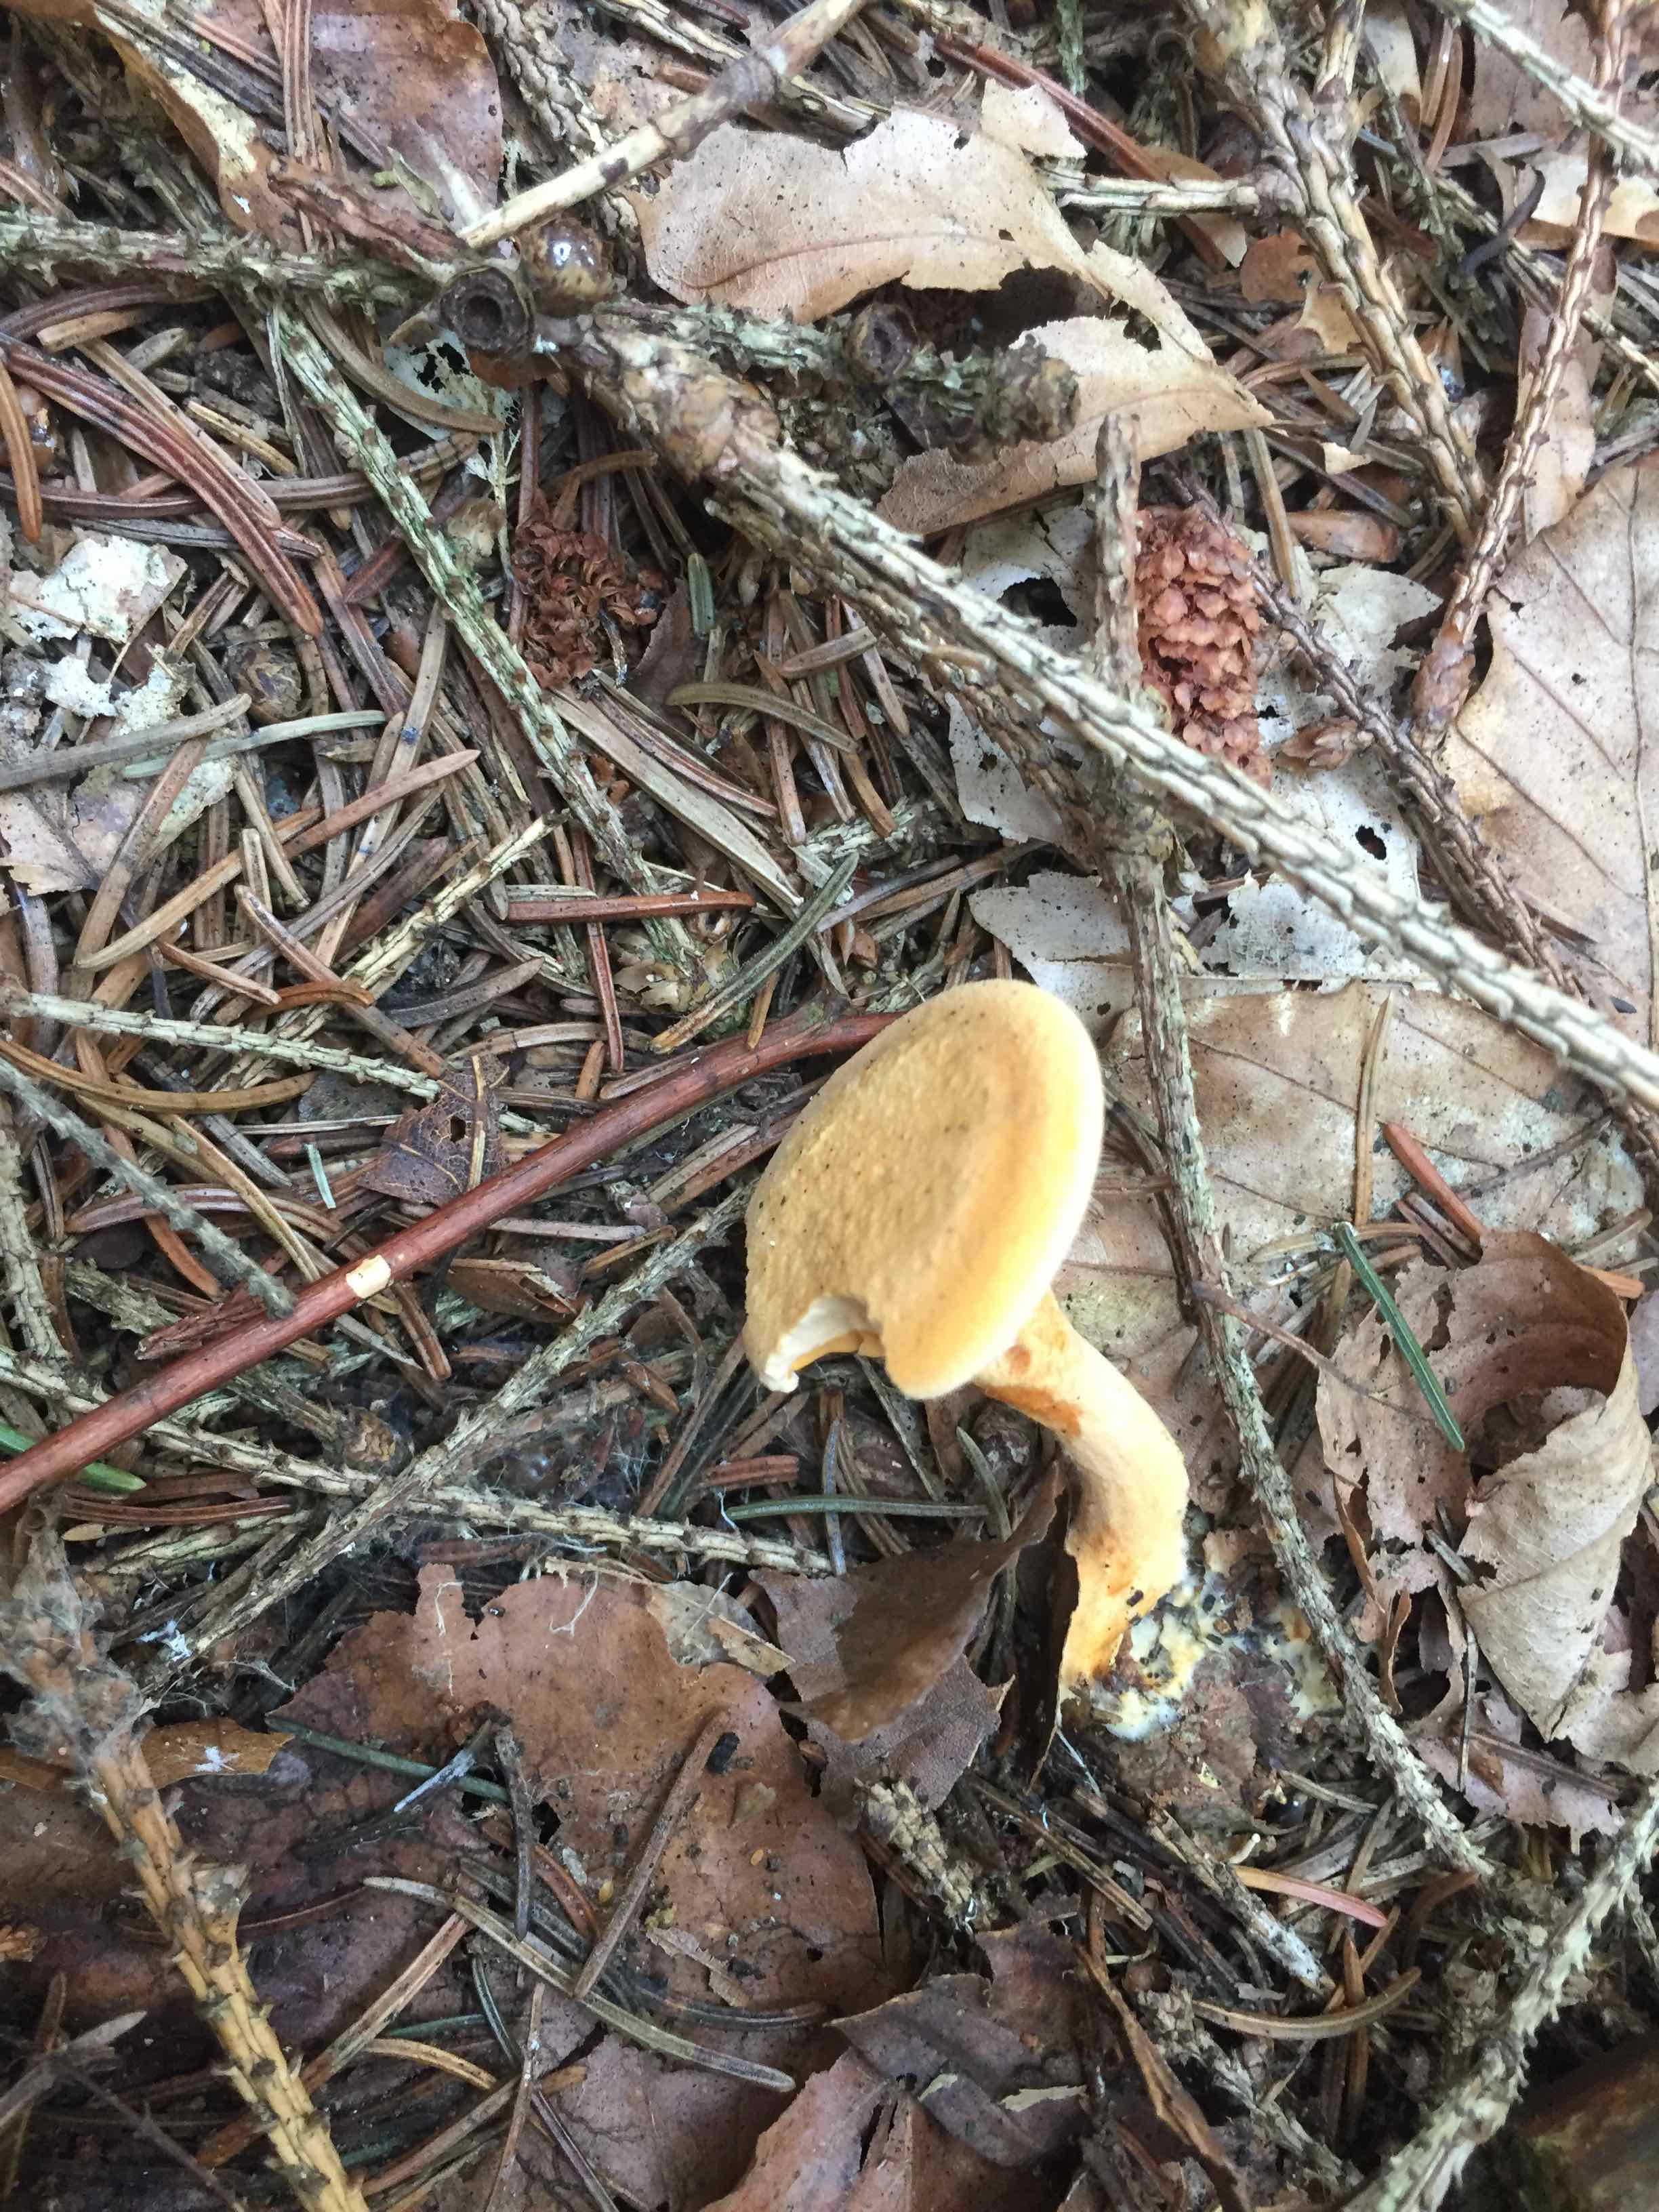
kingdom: Fungi
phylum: Basidiomycota
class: Agaricomycetes
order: Boletales
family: Hygrophoropsidaceae
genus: Hygrophoropsis
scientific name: Hygrophoropsis
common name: orangekantarel
